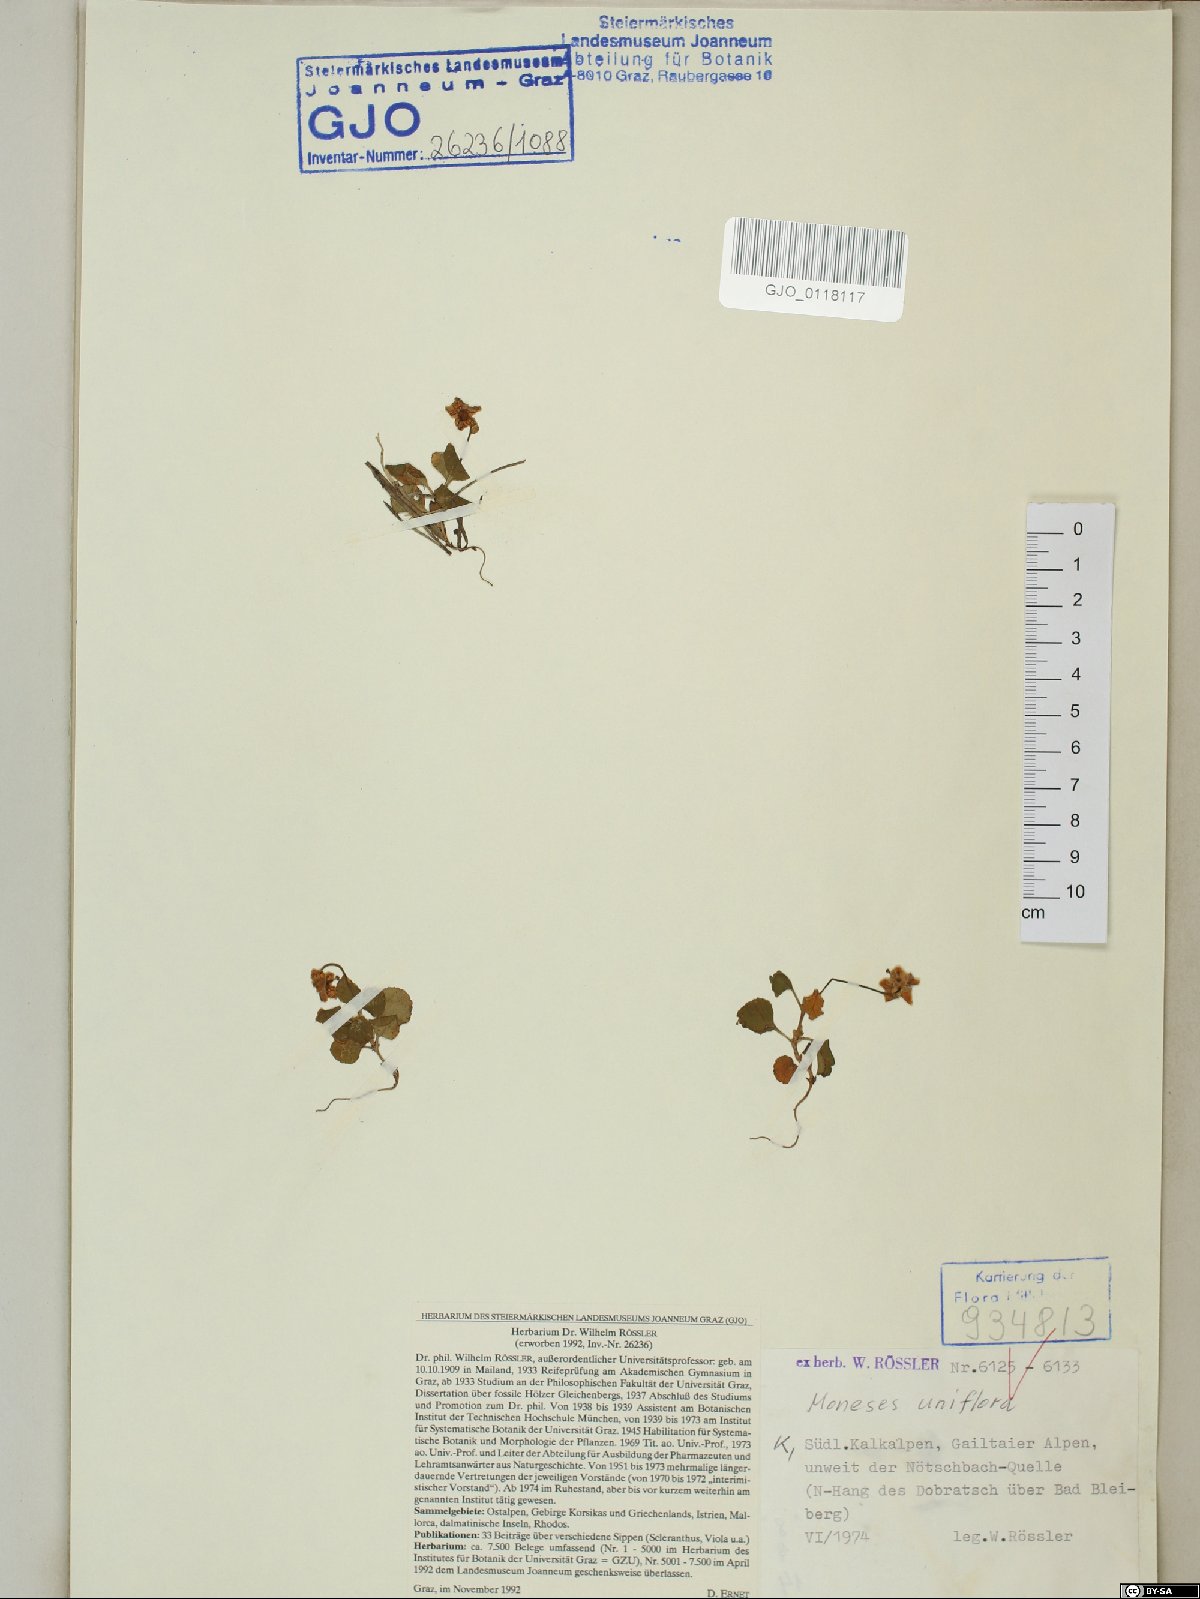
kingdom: Plantae
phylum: Tracheophyta
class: Magnoliopsida
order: Ericales
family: Ericaceae
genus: Moneses
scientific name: Moneses uniflora
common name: One-flowered wintergreen
